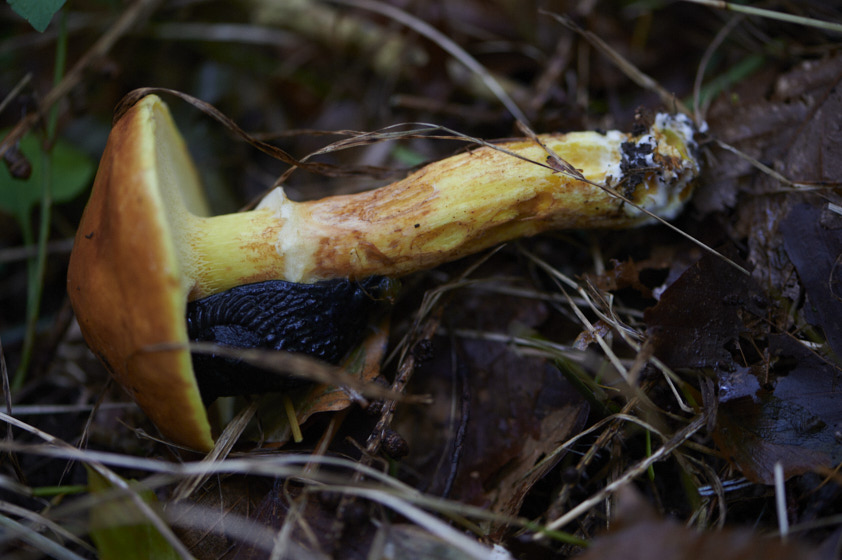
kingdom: Fungi
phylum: Basidiomycota
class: Agaricomycetes
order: Boletales
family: Suillaceae
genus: Suillus
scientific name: Suillus grevillei
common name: lærke-slimrørhat
